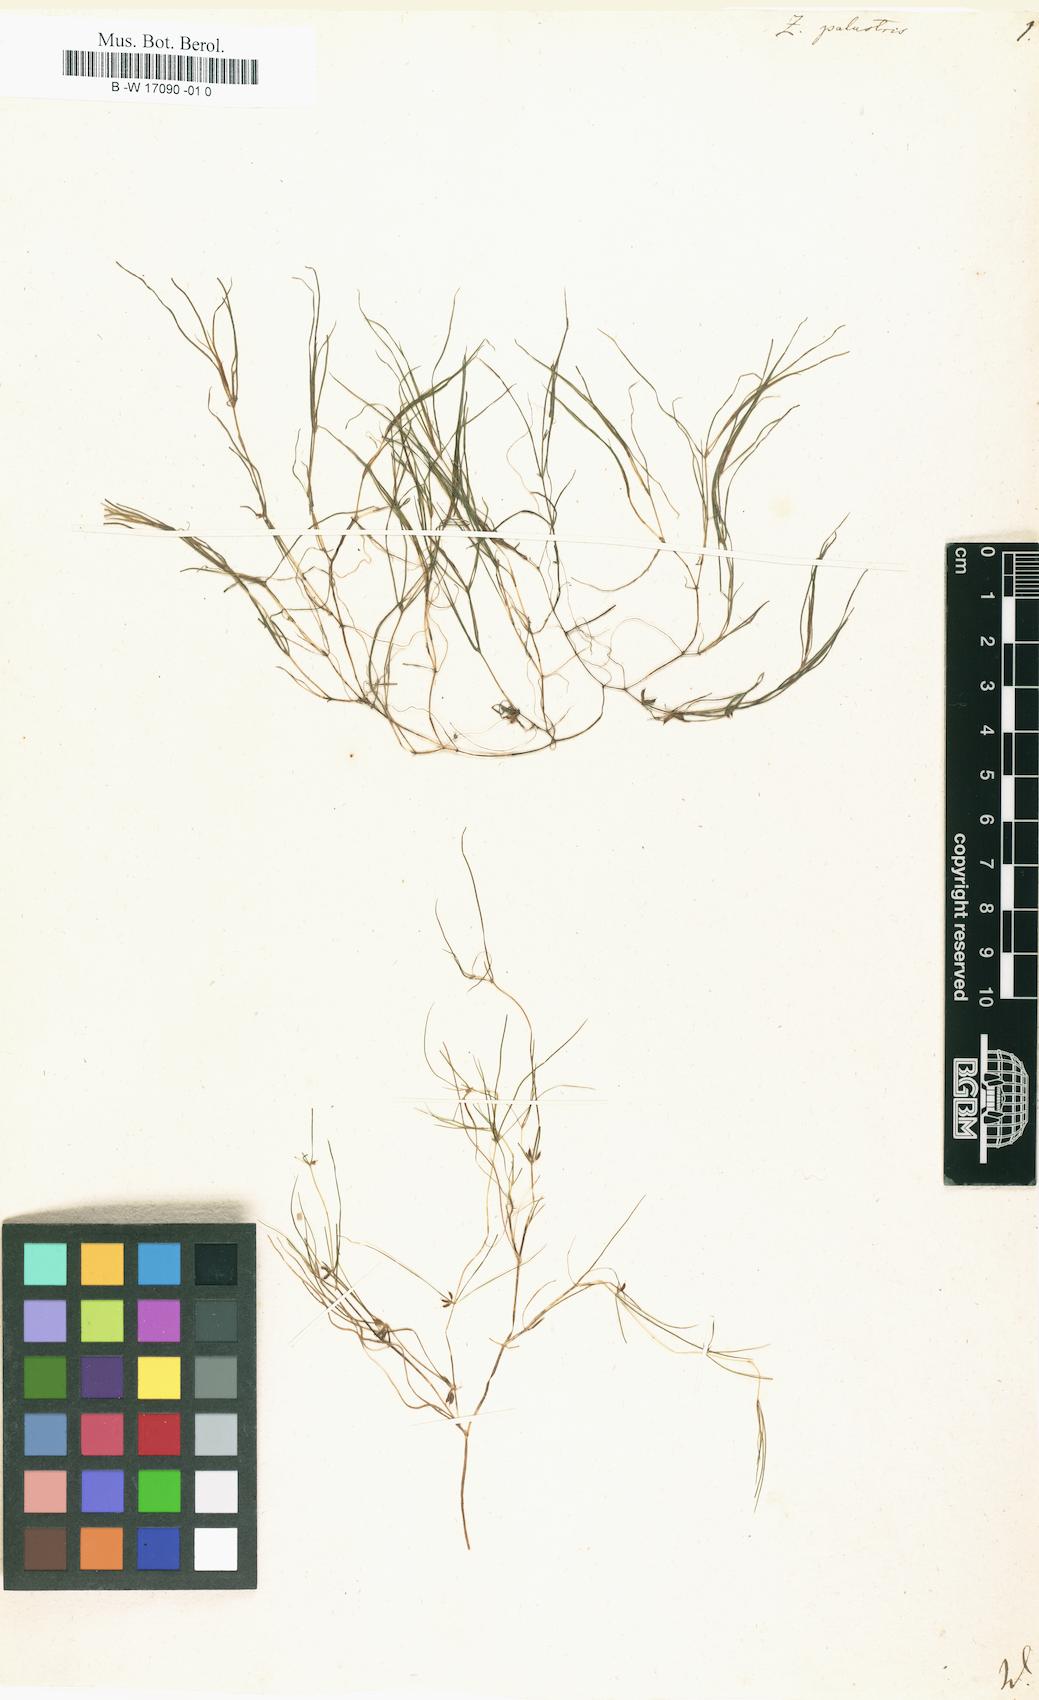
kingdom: Plantae
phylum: Tracheophyta
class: Liliopsida
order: Alismatales
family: Potamogetonaceae
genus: Zannichellia
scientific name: Zannichellia palustris
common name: Horned pondweed
